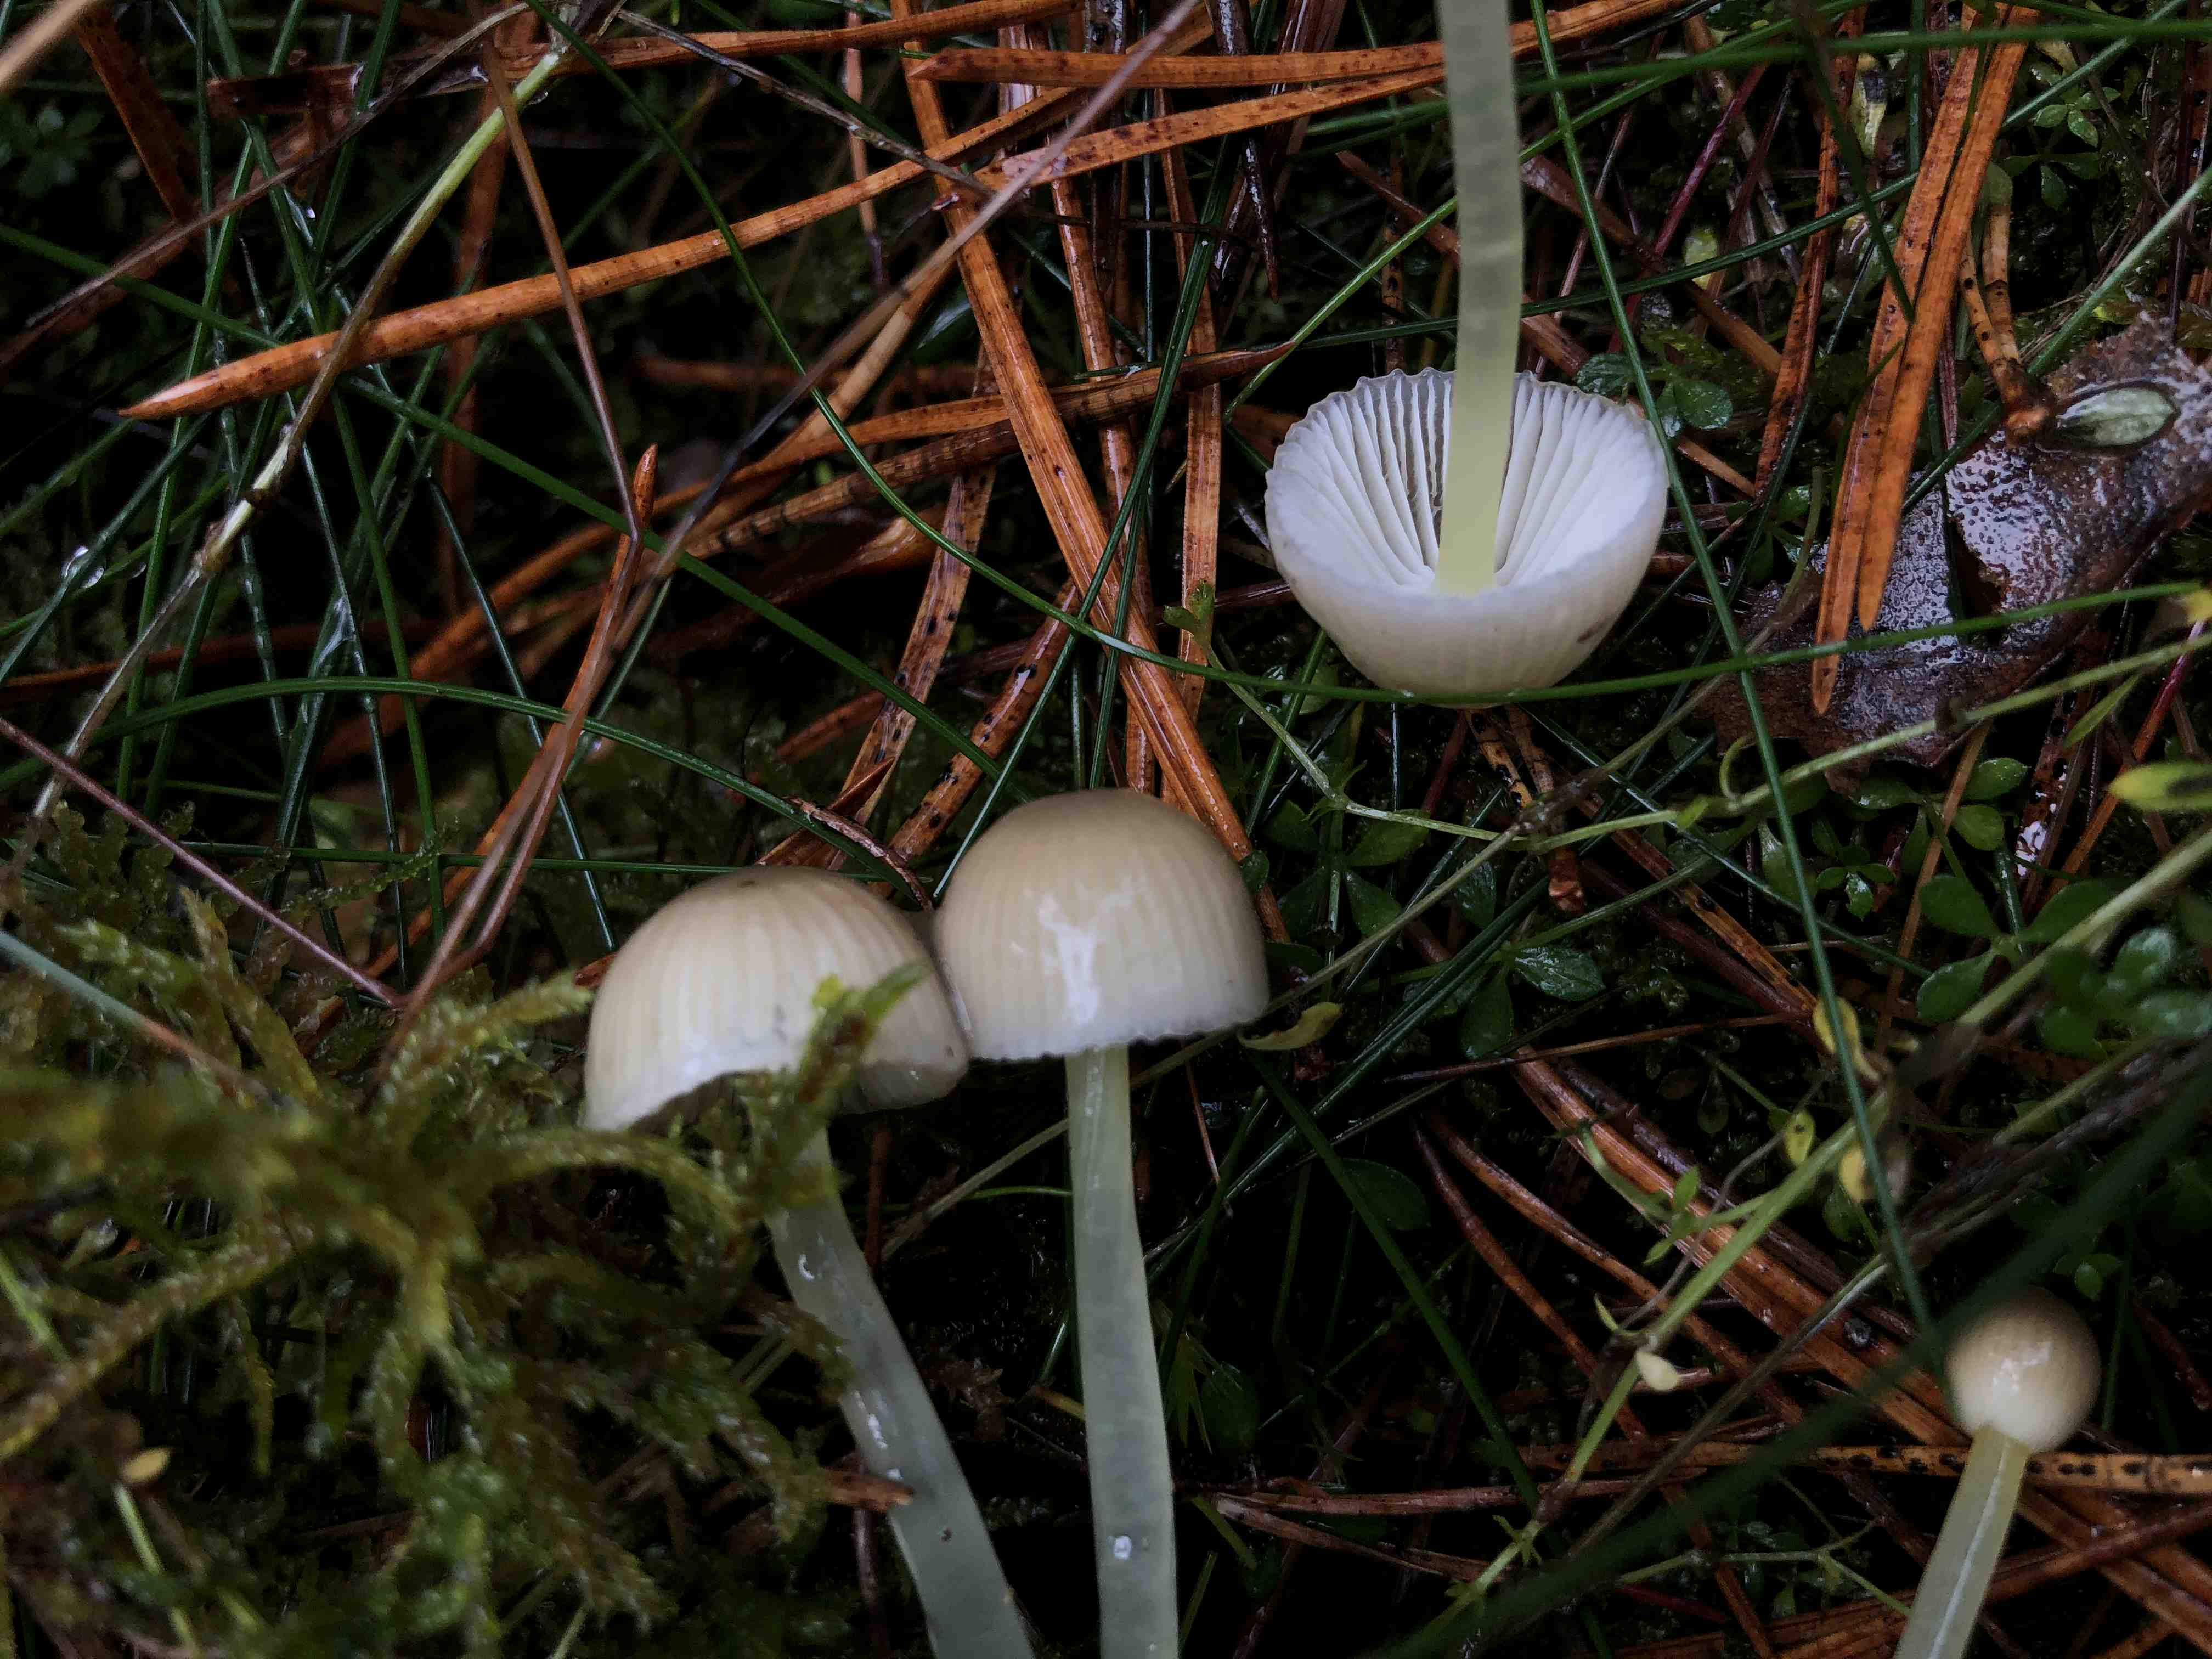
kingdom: Fungi
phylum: Basidiomycota
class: Agaricomycetes
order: Agaricales
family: Mycenaceae
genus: Mycena
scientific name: Mycena epipterygia
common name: gulstokket huesvamp
